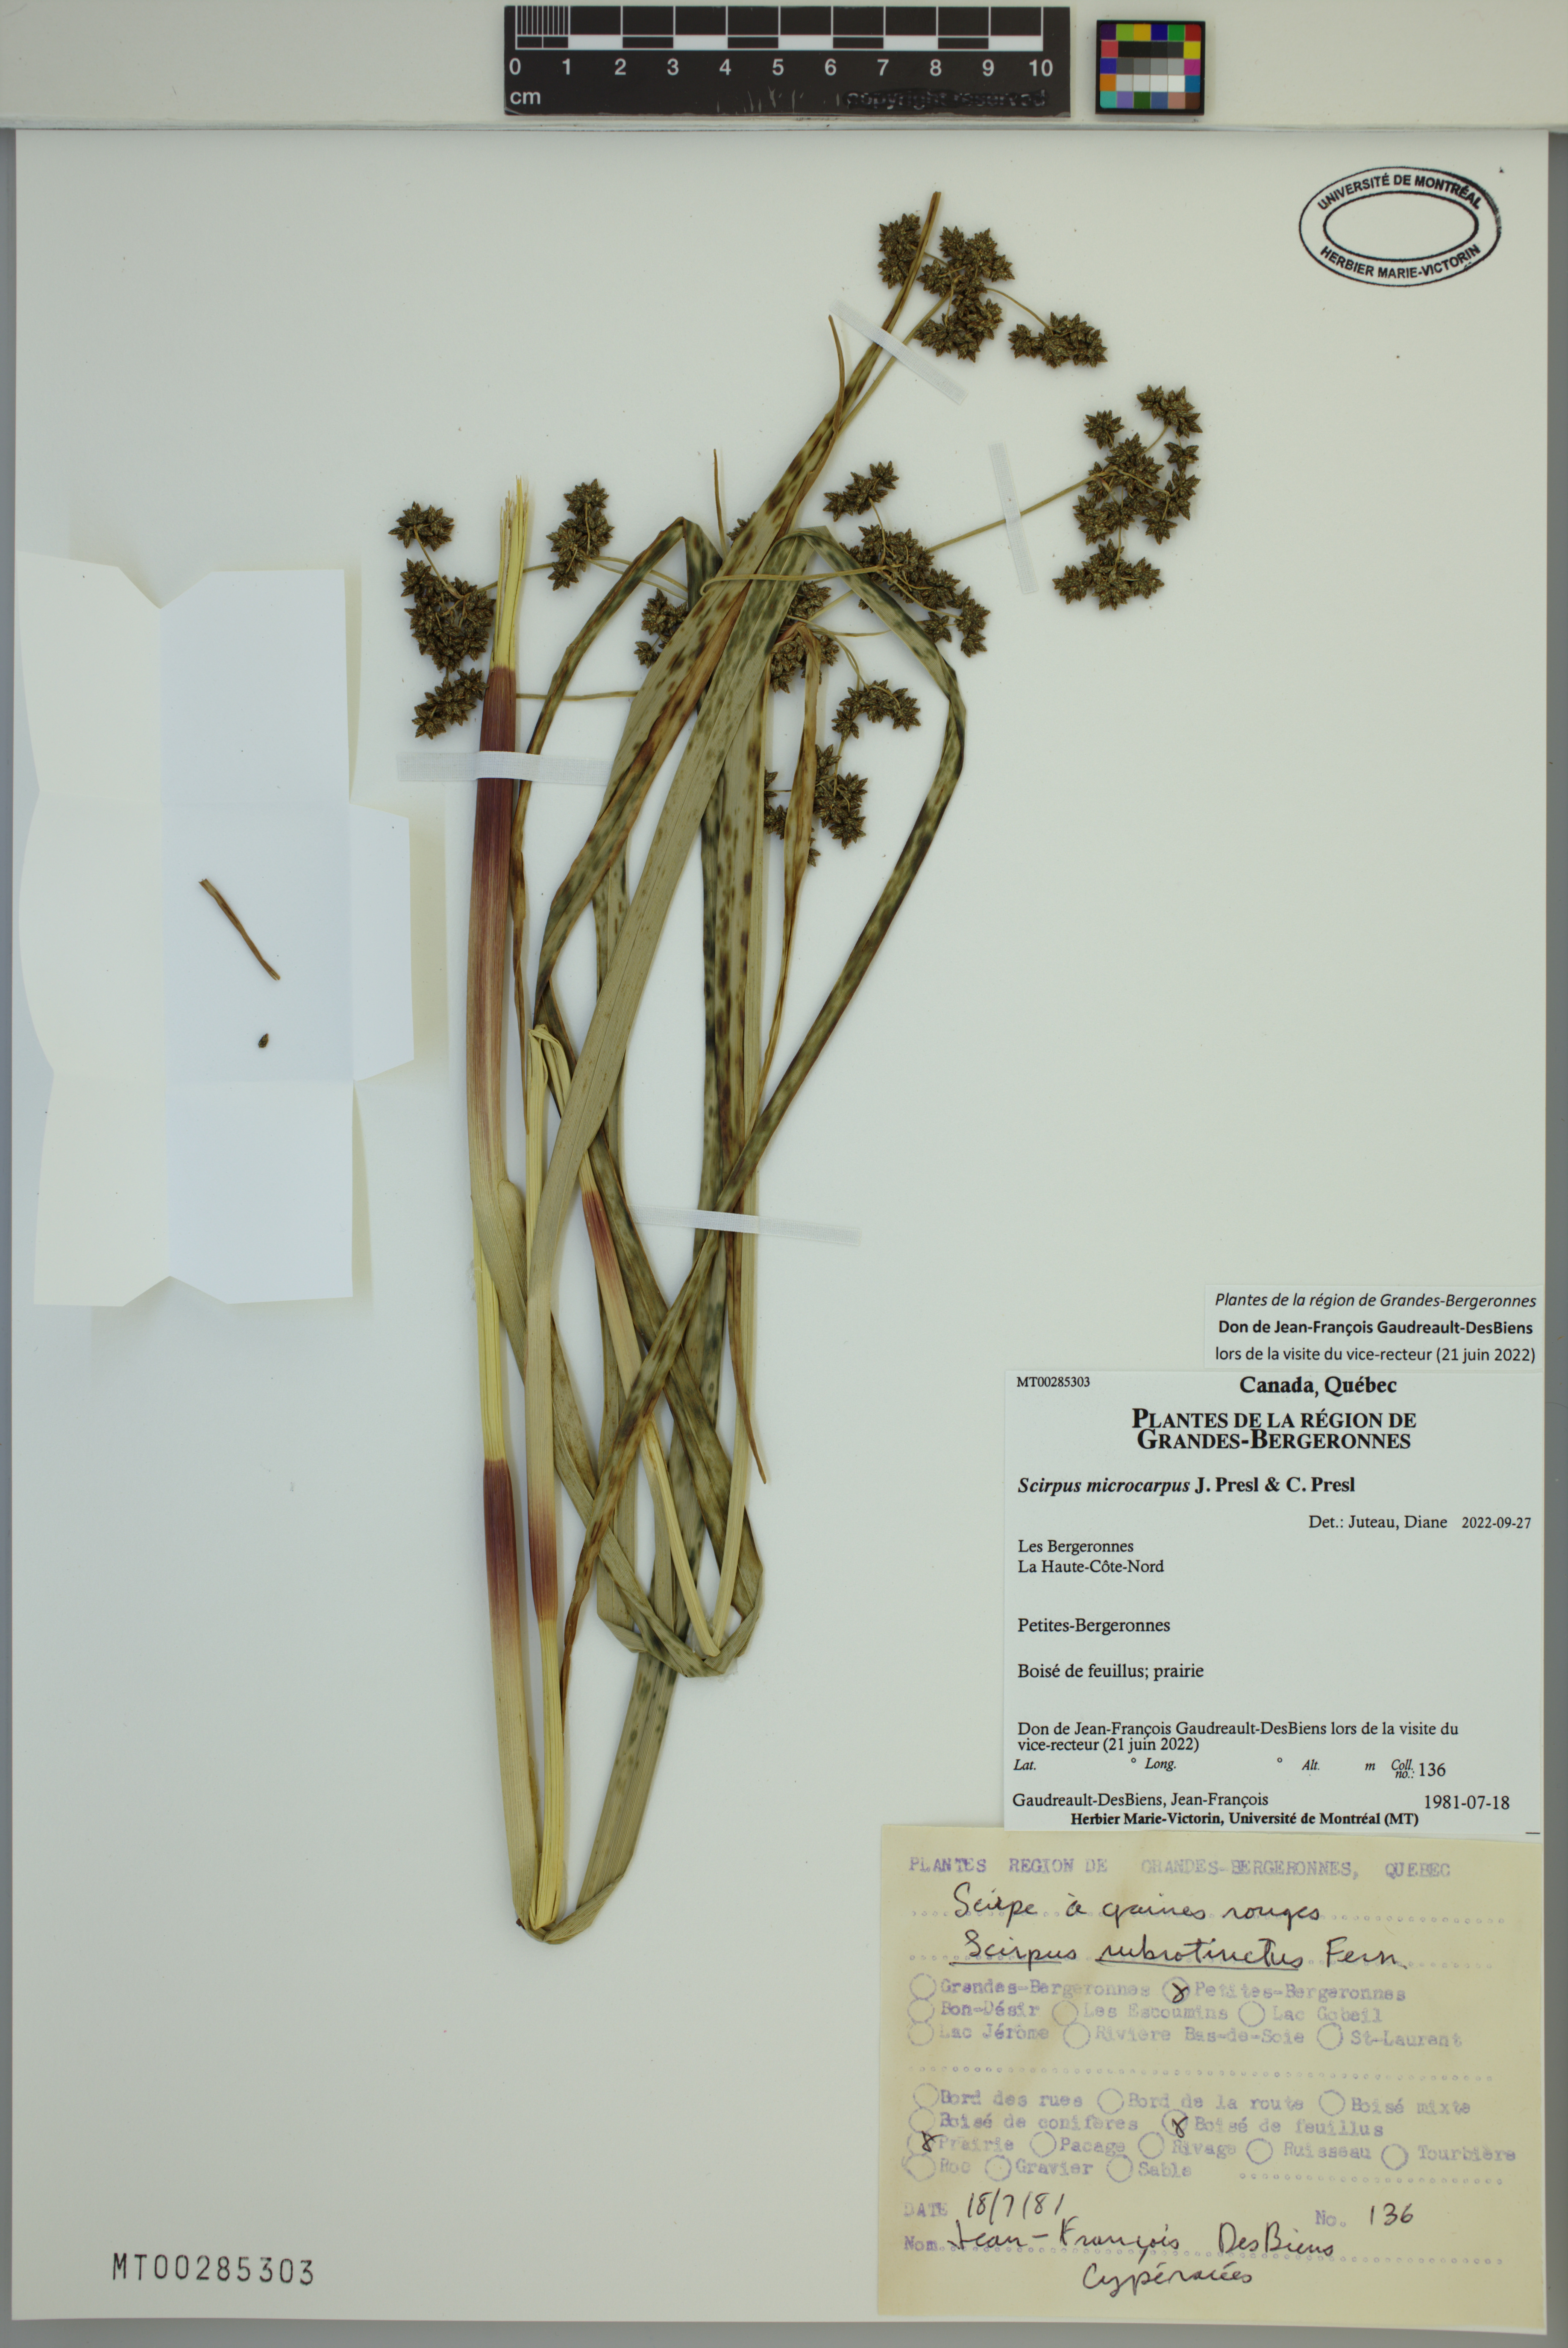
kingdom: Plantae
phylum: Tracheophyta
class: Liliopsida
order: Poales
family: Cyperaceae
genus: Scirpus
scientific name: Scirpus microcarpus
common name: Panicled bulrush
